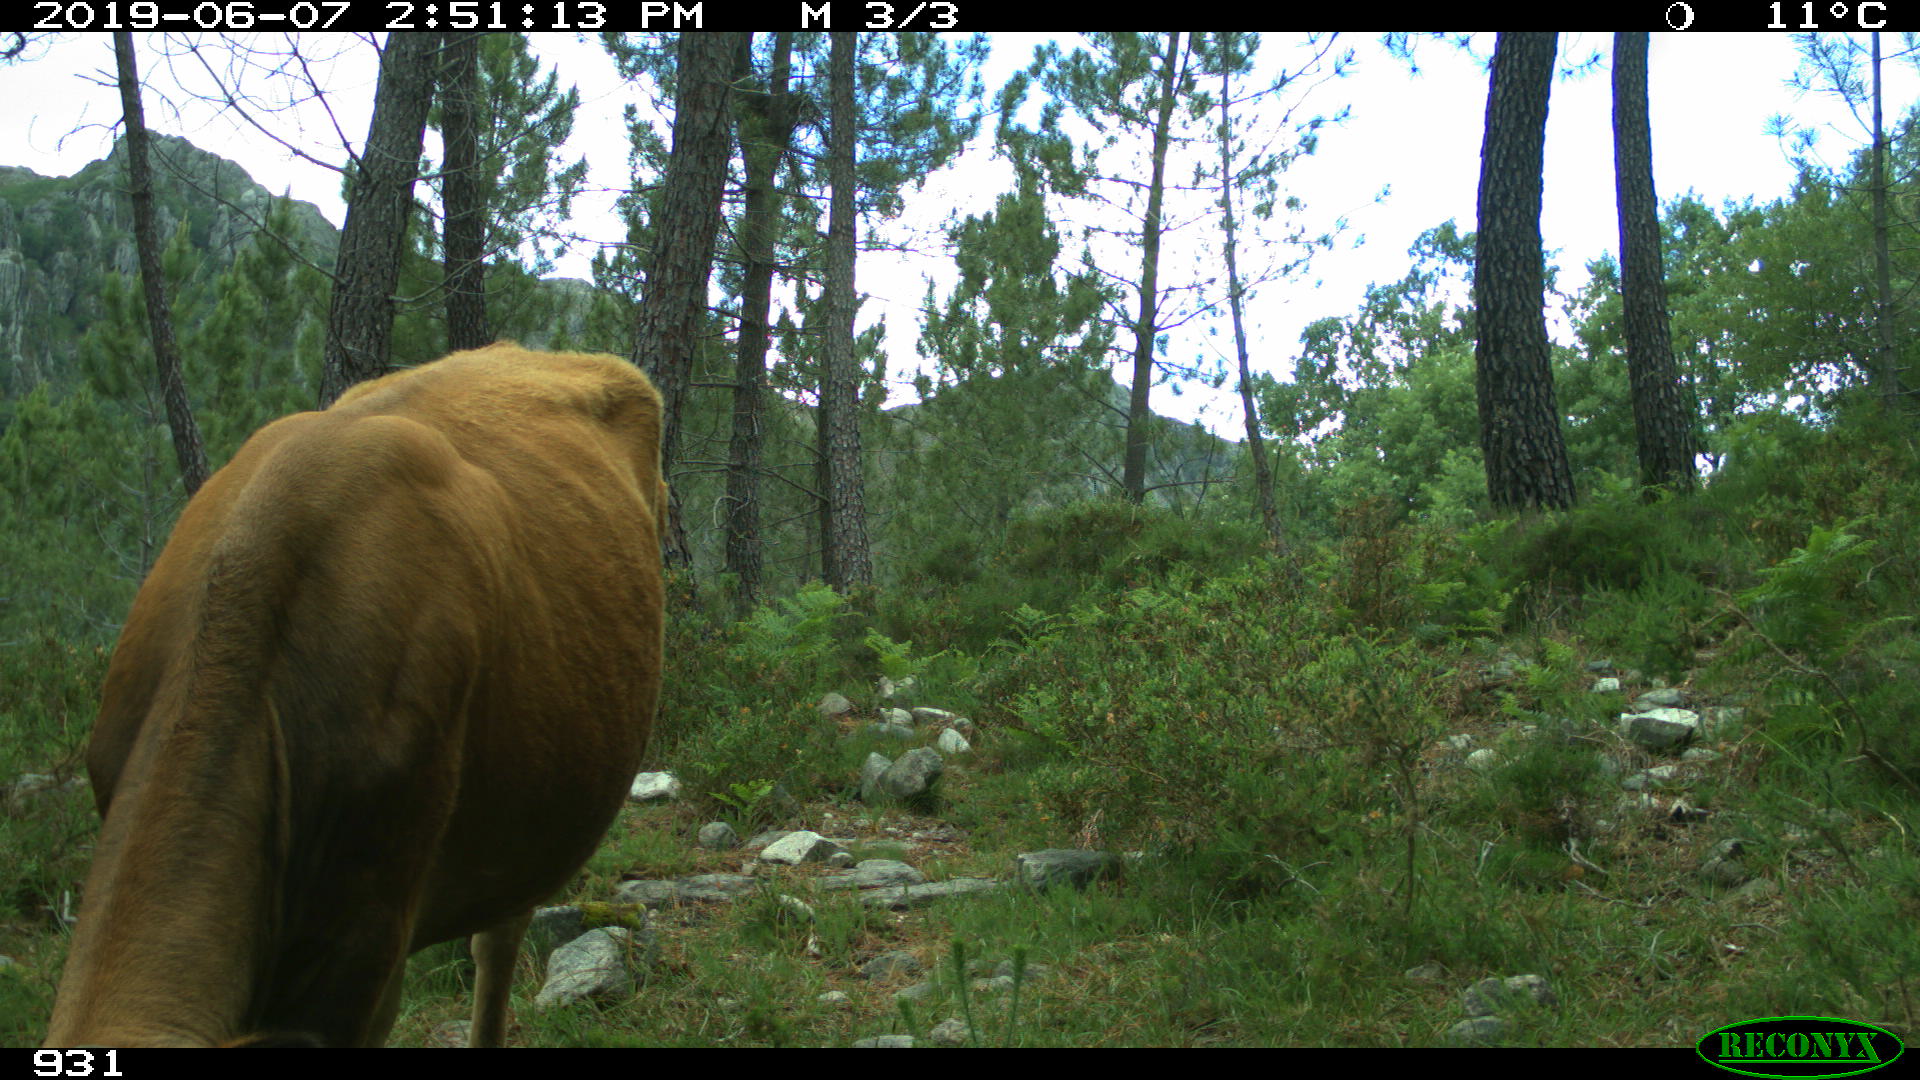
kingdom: Animalia
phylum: Chordata
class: Mammalia
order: Artiodactyla
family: Bovidae
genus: Bos
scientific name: Bos taurus
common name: Domesticated cattle
